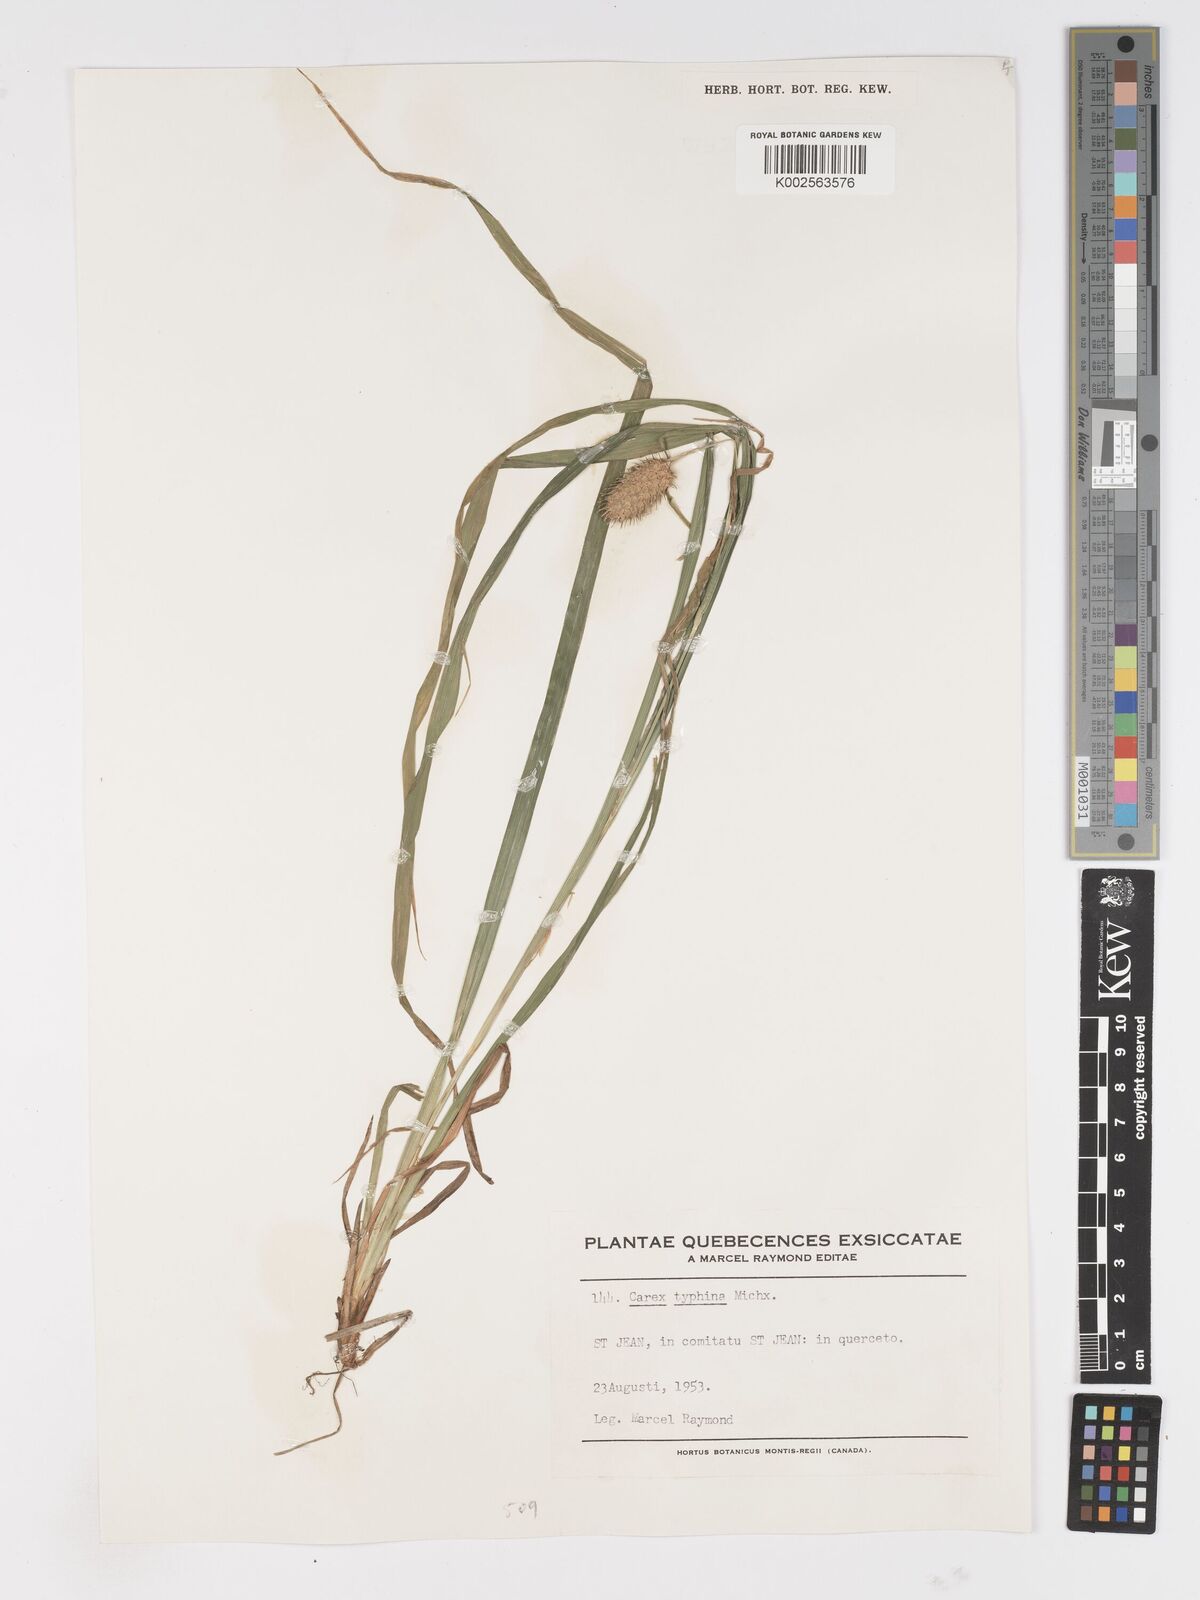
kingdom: Plantae
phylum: Tracheophyta
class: Liliopsida
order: Poales
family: Cyperaceae
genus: Carex
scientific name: Carex typhina
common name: Cattail sedge
